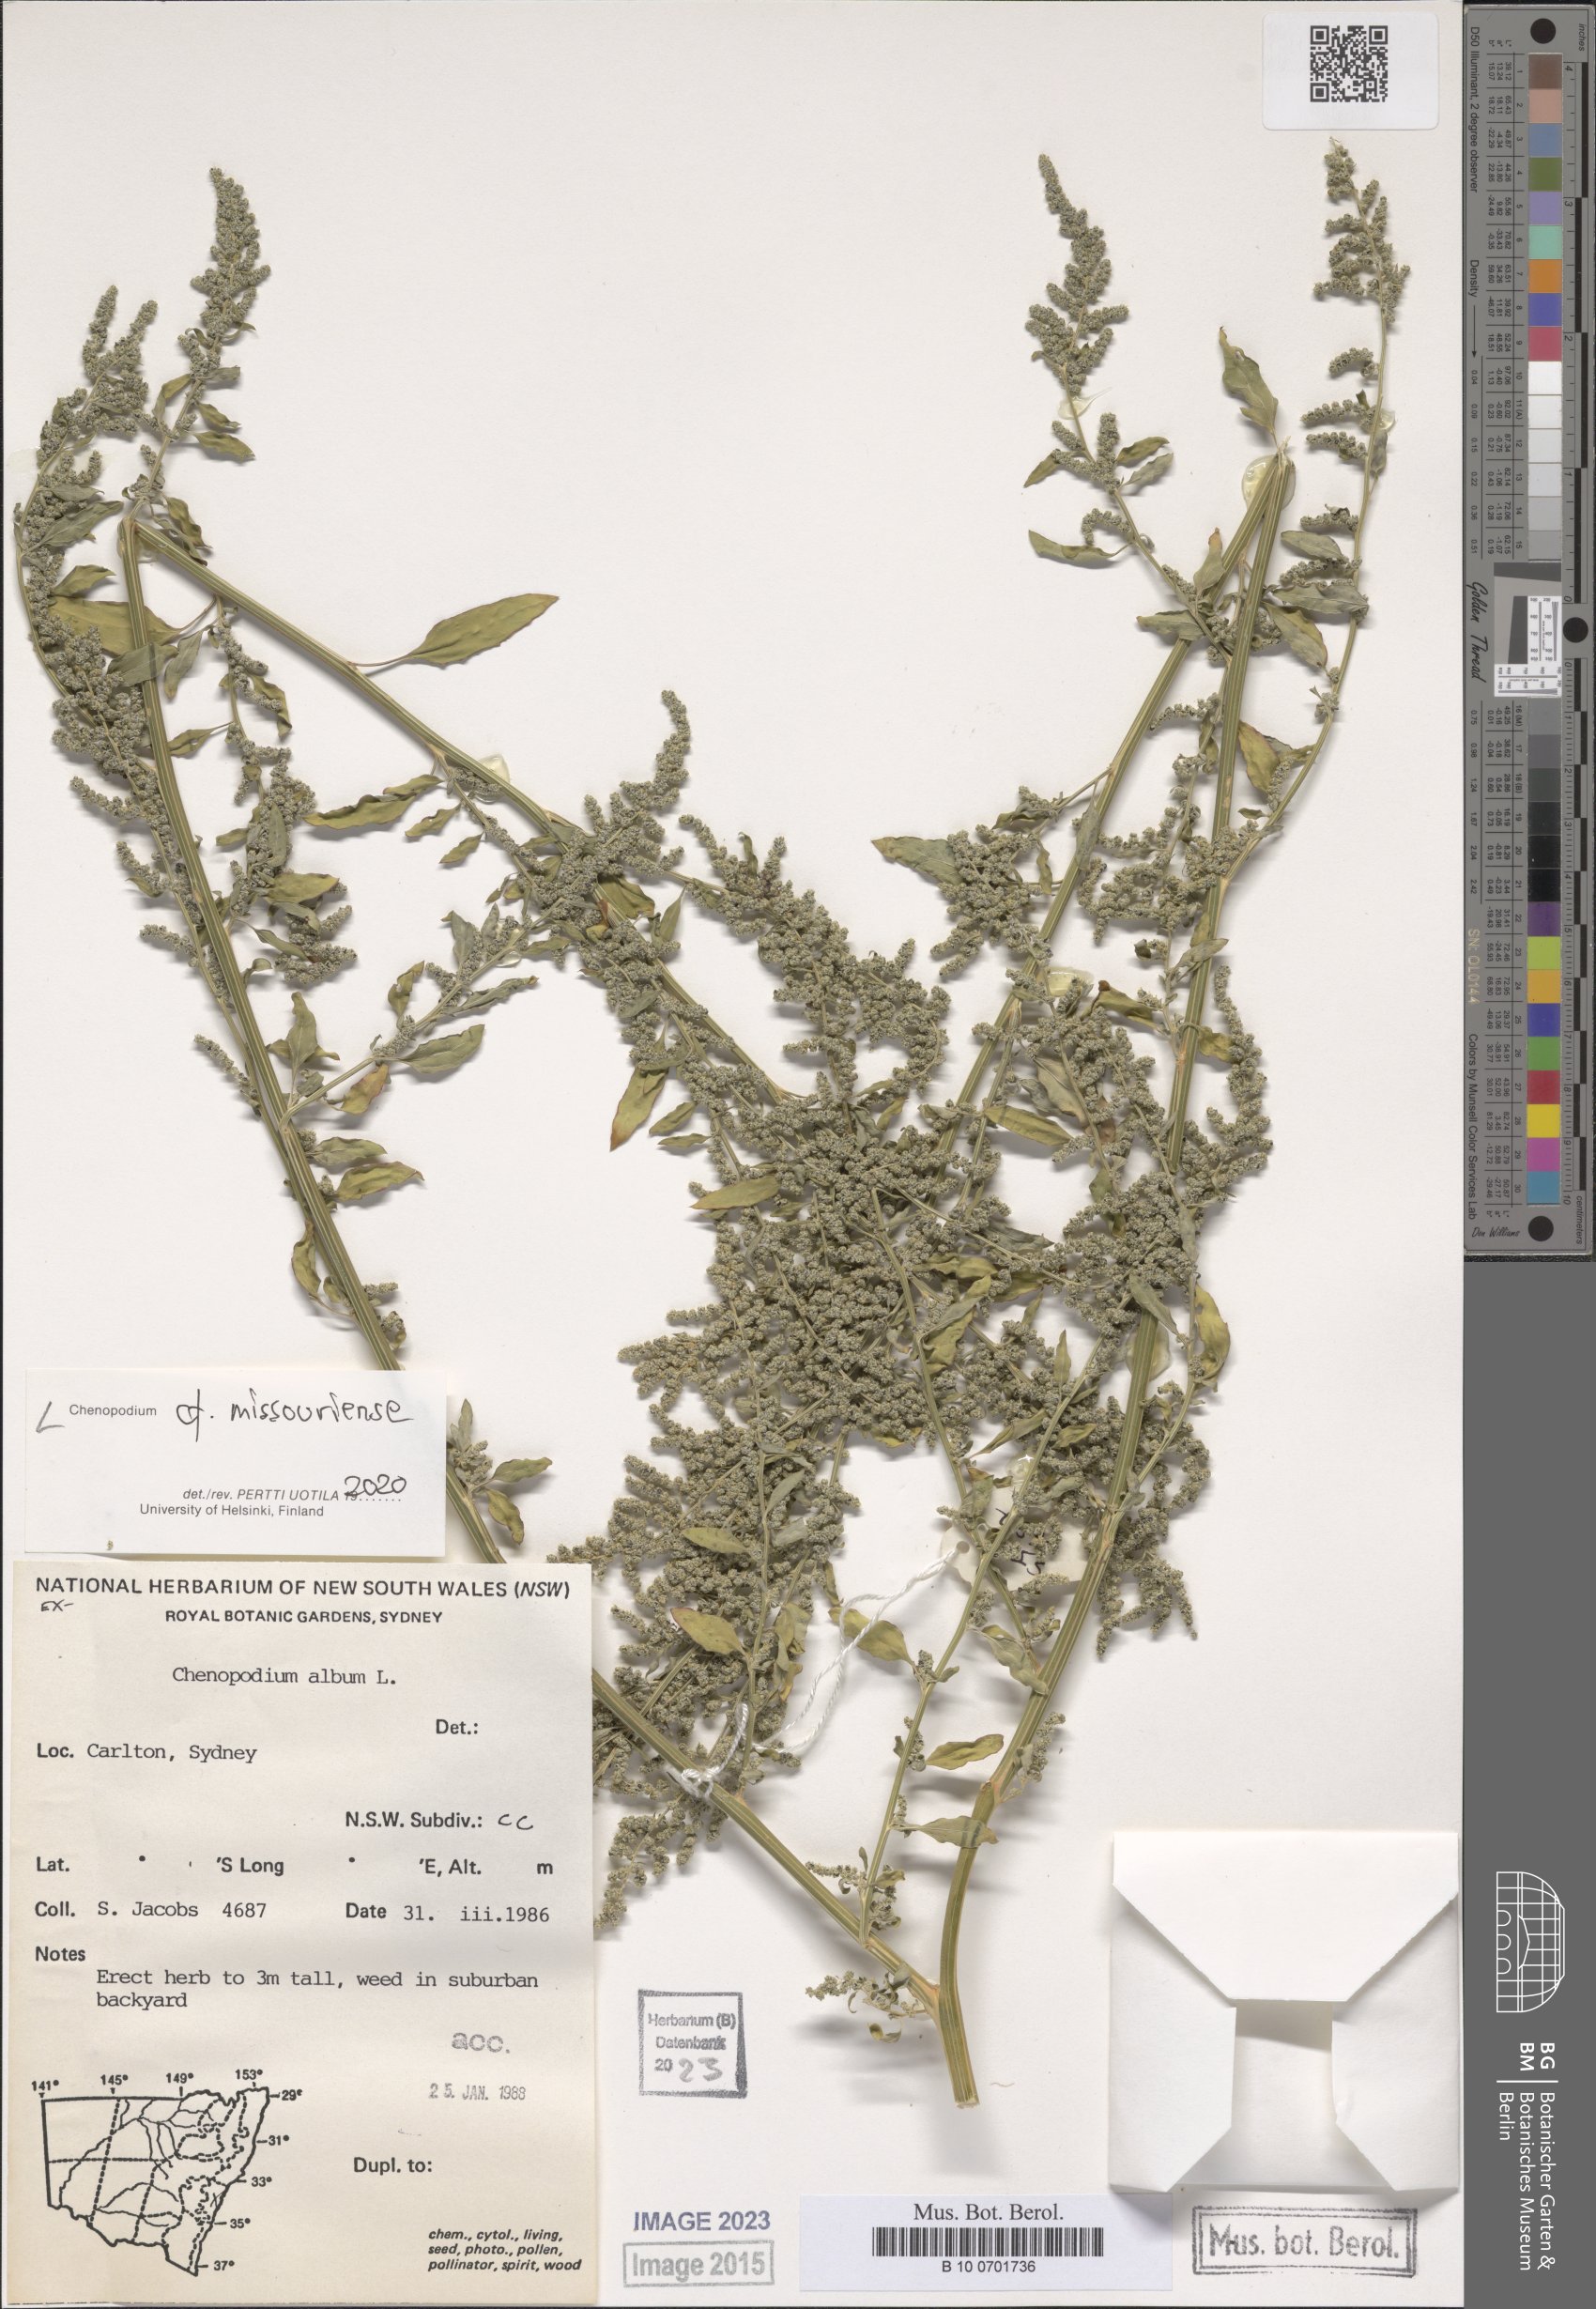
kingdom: Plantae
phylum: Tracheophyta
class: Magnoliopsida
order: Caryophyllales
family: Amaranthaceae
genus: Chenopodium
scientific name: Chenopodium album
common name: Fat-hen
